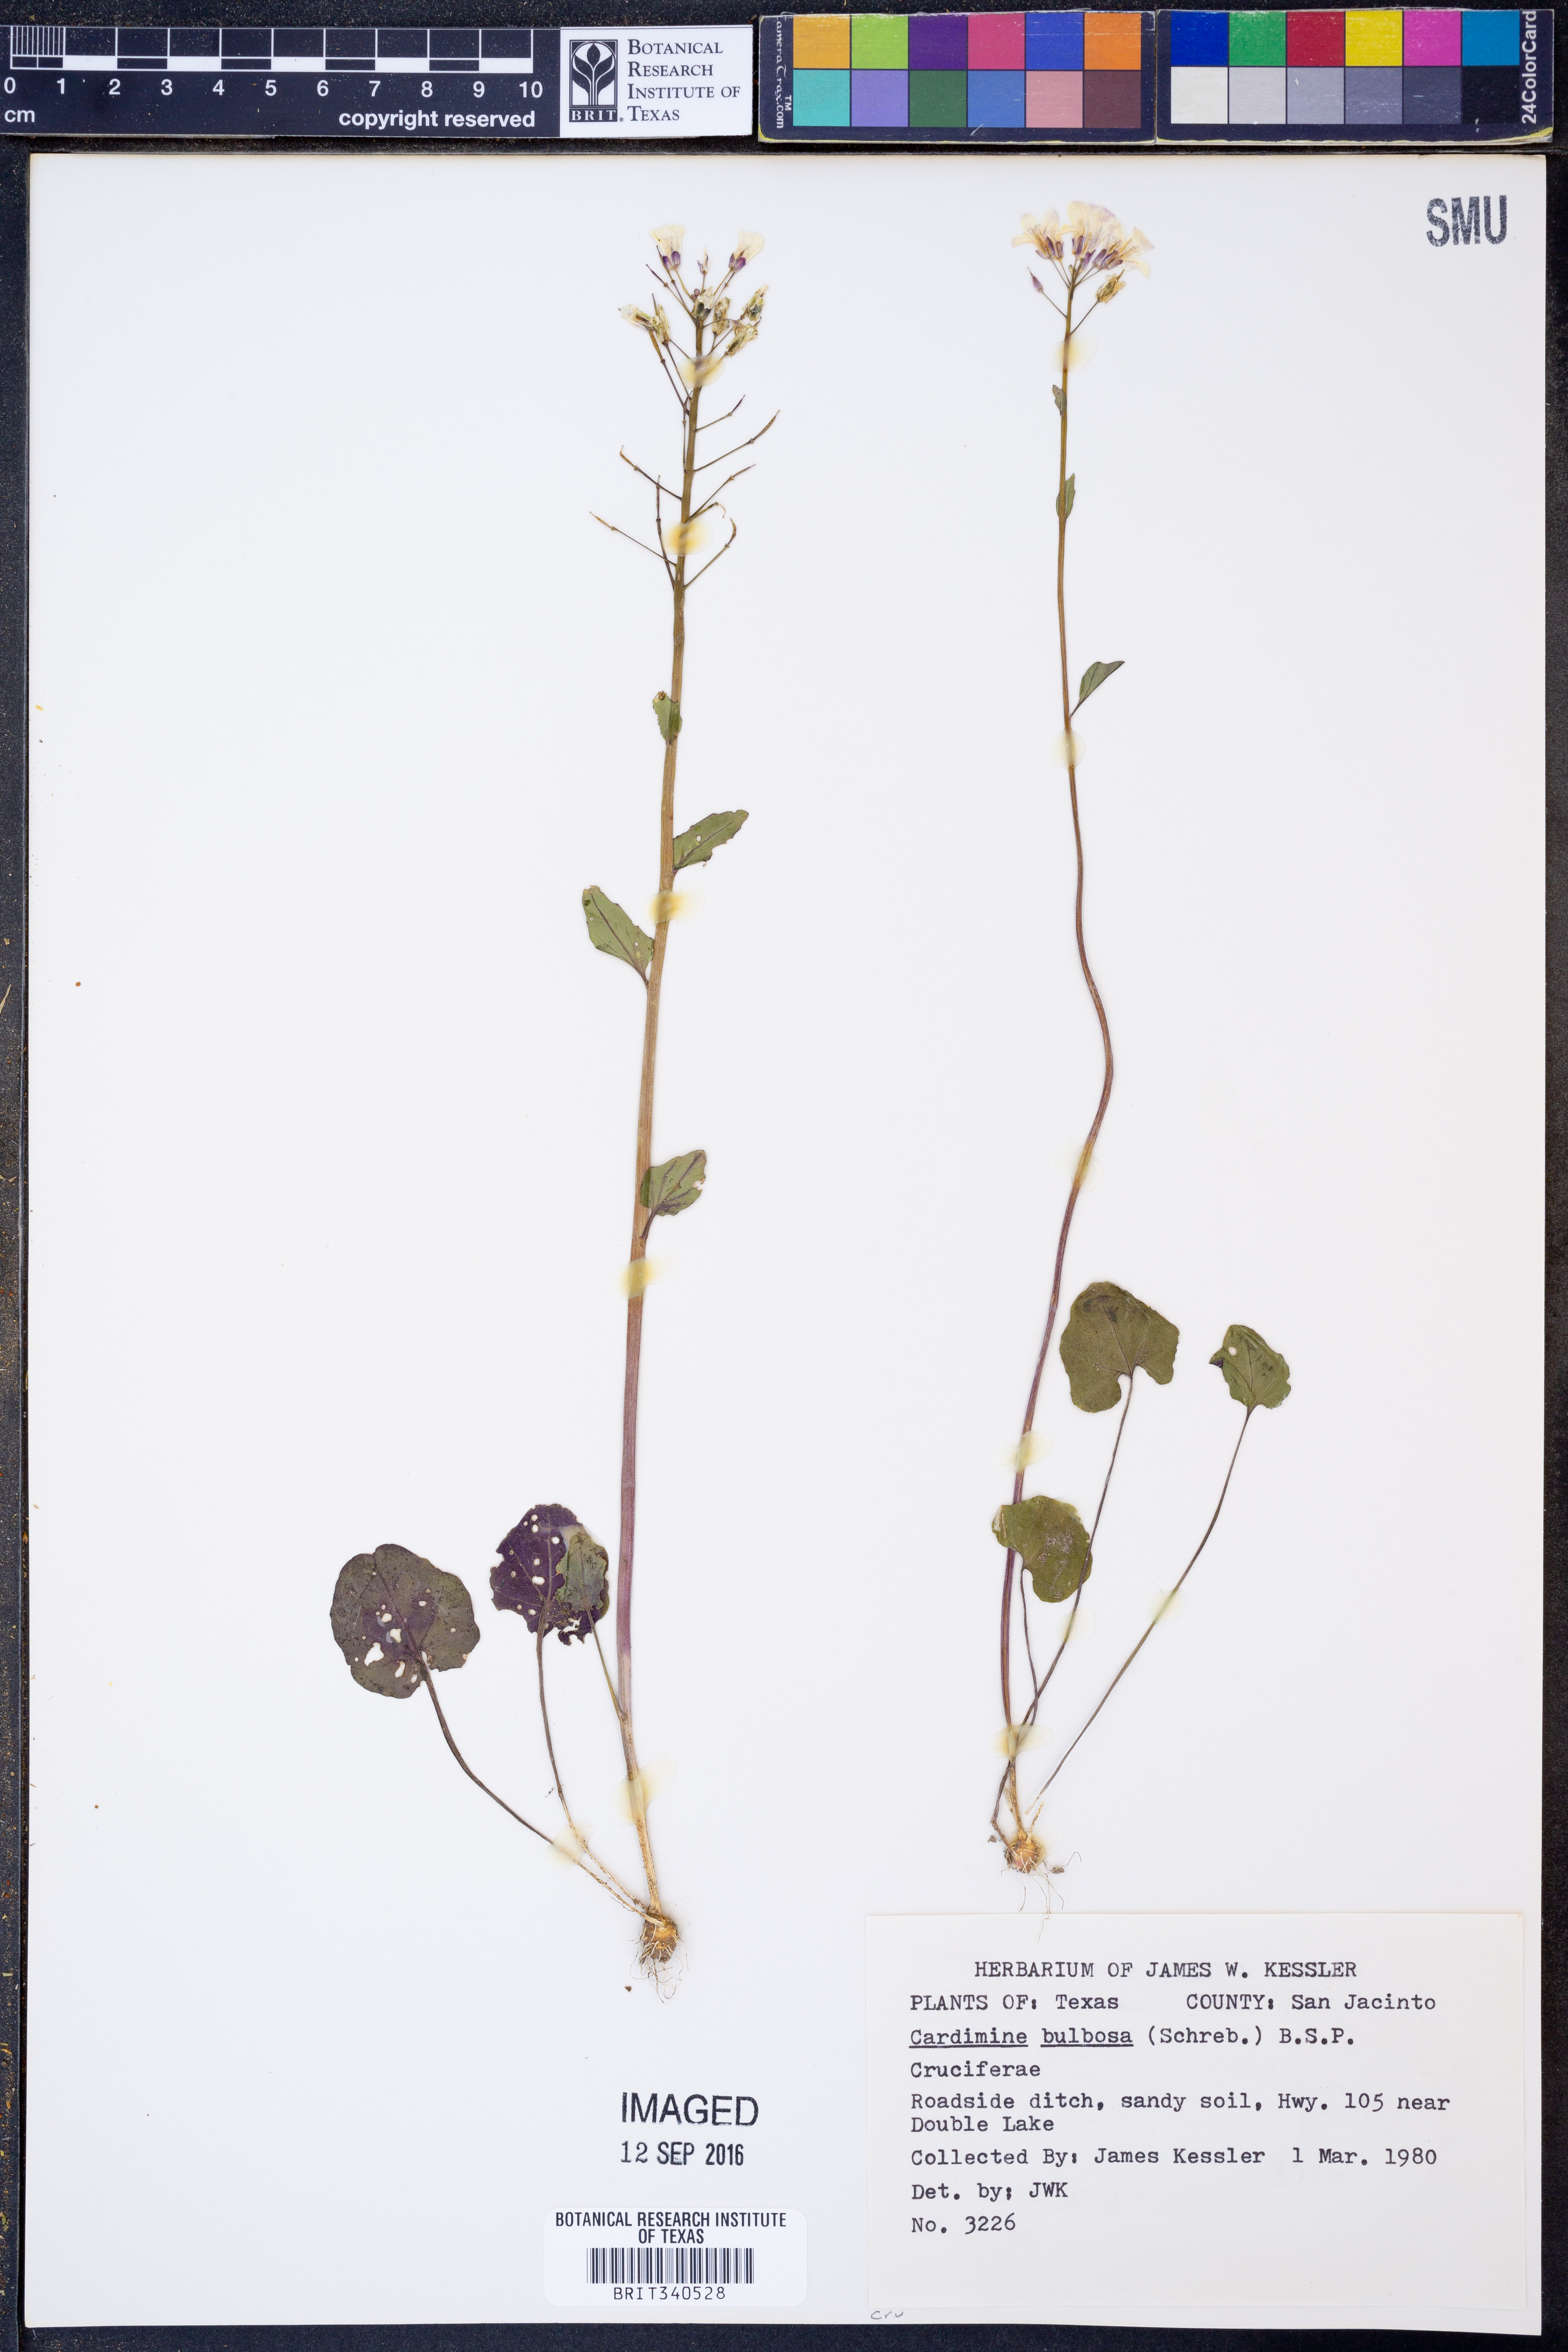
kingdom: Plantae
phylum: Tracheophyta
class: Magnoliopsida
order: Brassicales
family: Brassicaceae
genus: Cardamine
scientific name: Cardamine bulbosa
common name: Spring cress
